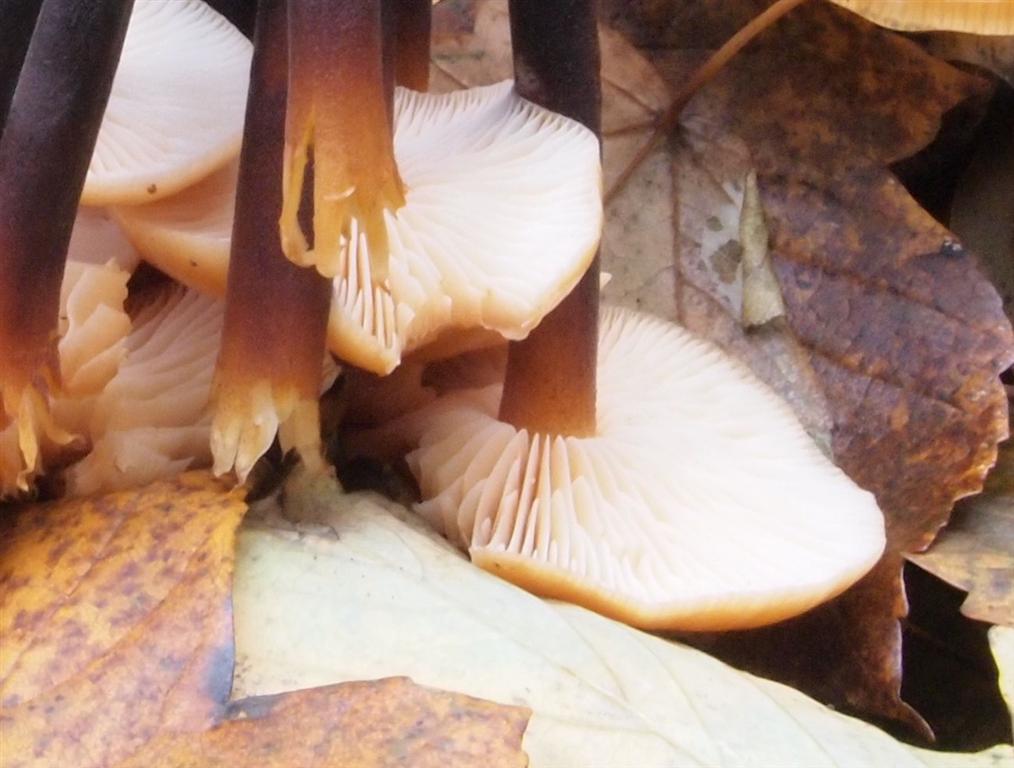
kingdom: Fungi
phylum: Basidiomycota
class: Agaricomycetes
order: Agaricales
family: Physalacriaceae
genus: Flammulina
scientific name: Flammulina velutipes
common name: gul fløjlsfod
